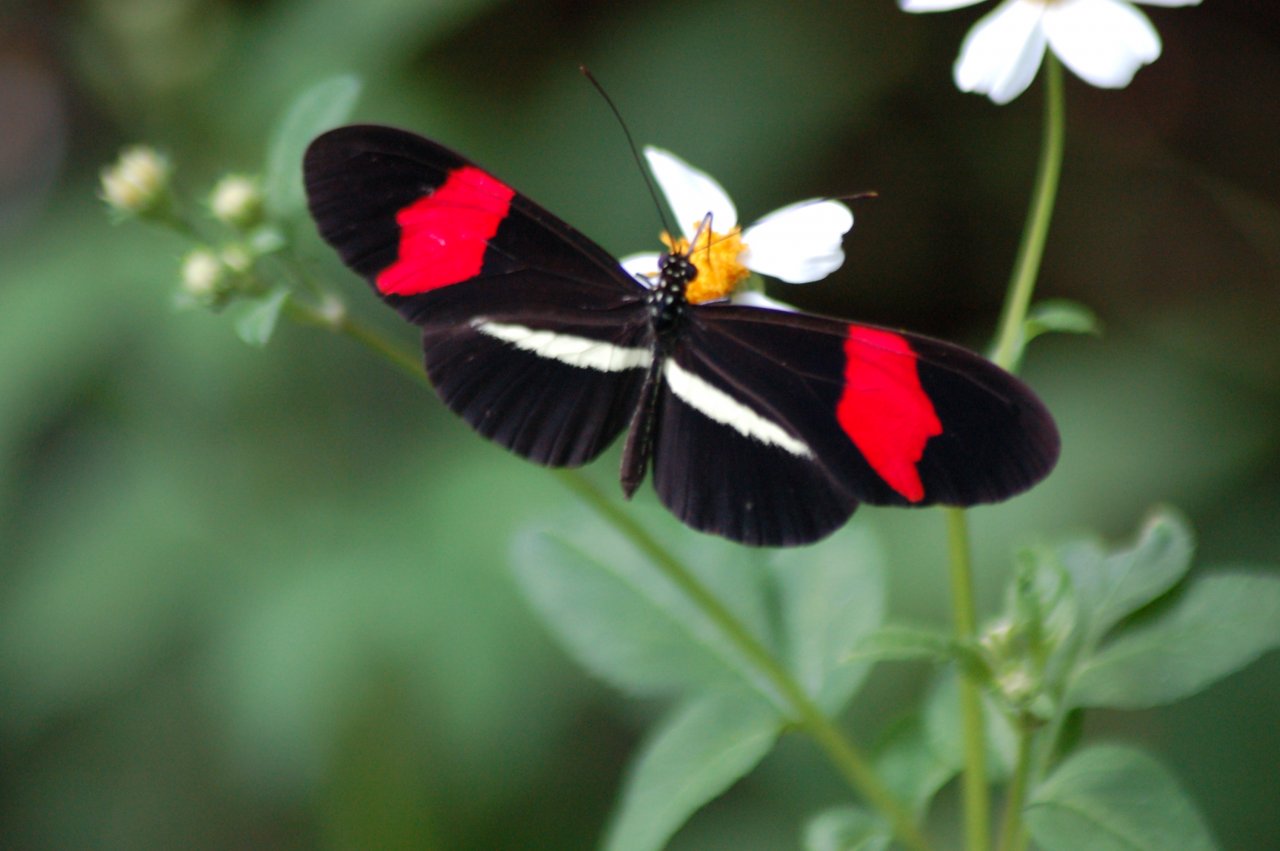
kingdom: Animalia
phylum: Arthropoda
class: Insecta
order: Lepidoptera
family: Nymphalidae
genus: Heliconius
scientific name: Heliconius erato
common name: Erato Heliconian
